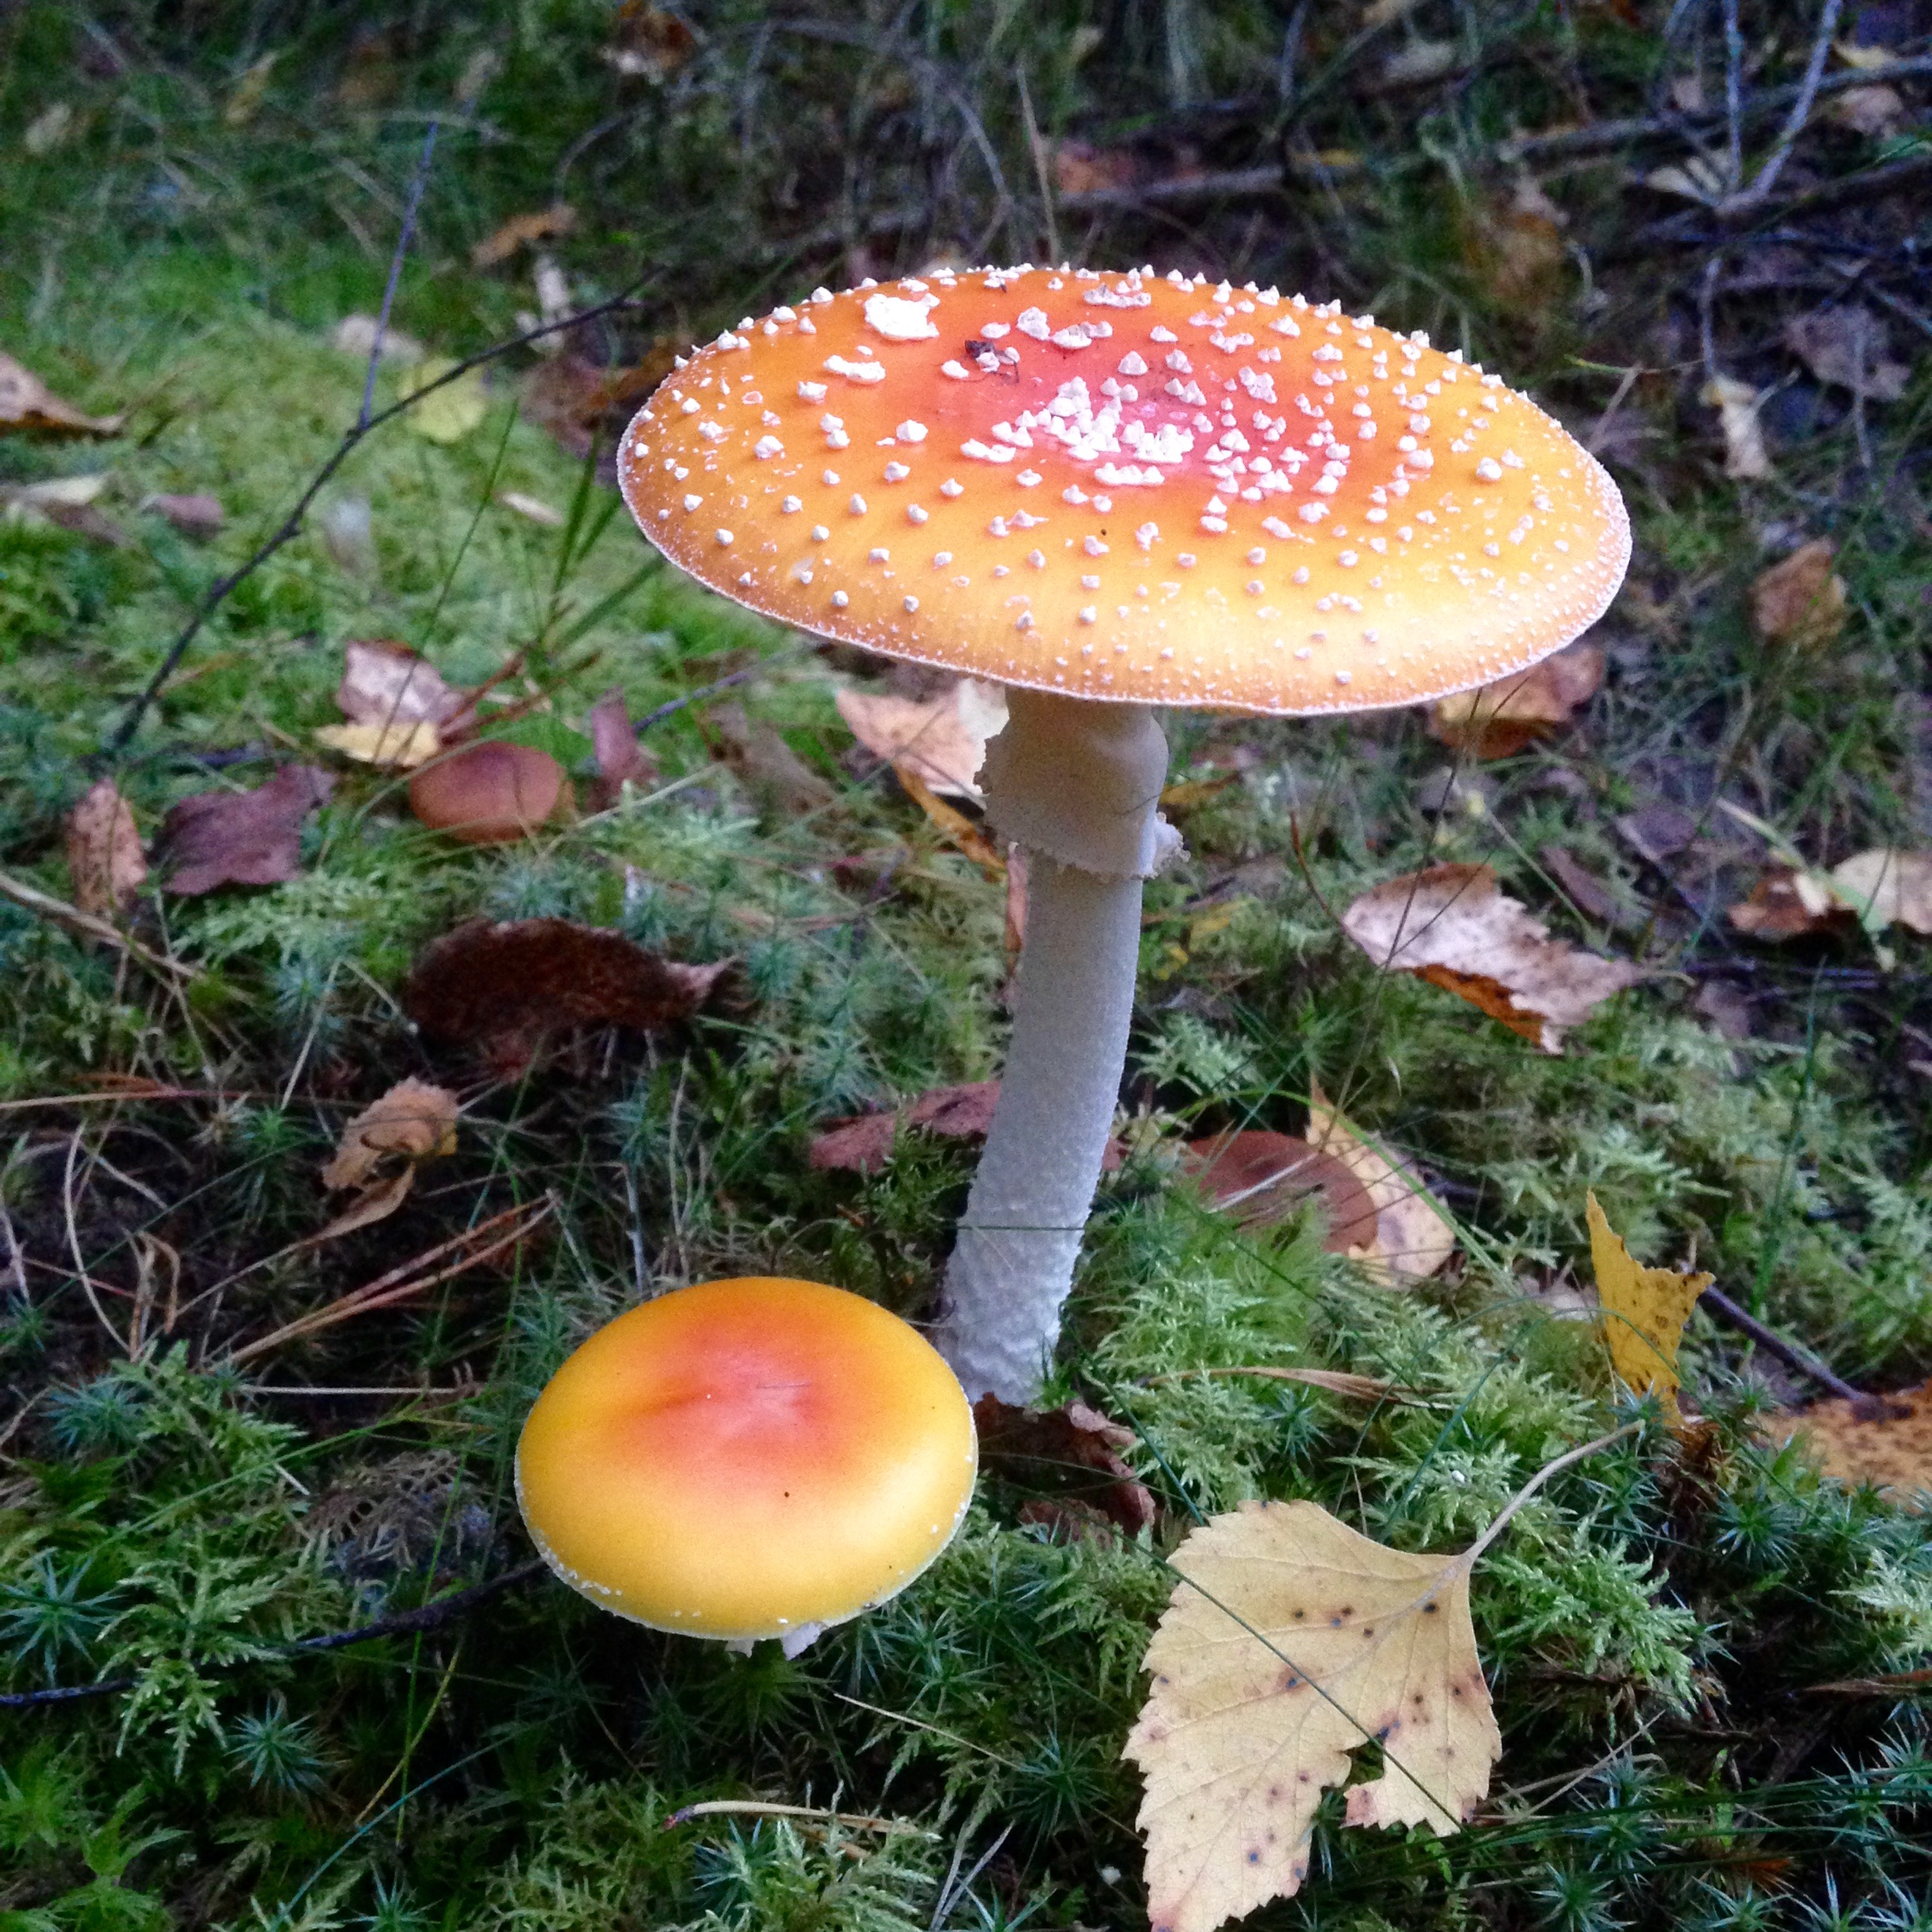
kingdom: Fungi
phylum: Basidiomycota
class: Agaricomycetes
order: Agaricales
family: Amanitaceae
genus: Amanita
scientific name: Amanita muscaria
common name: Fly agaric
